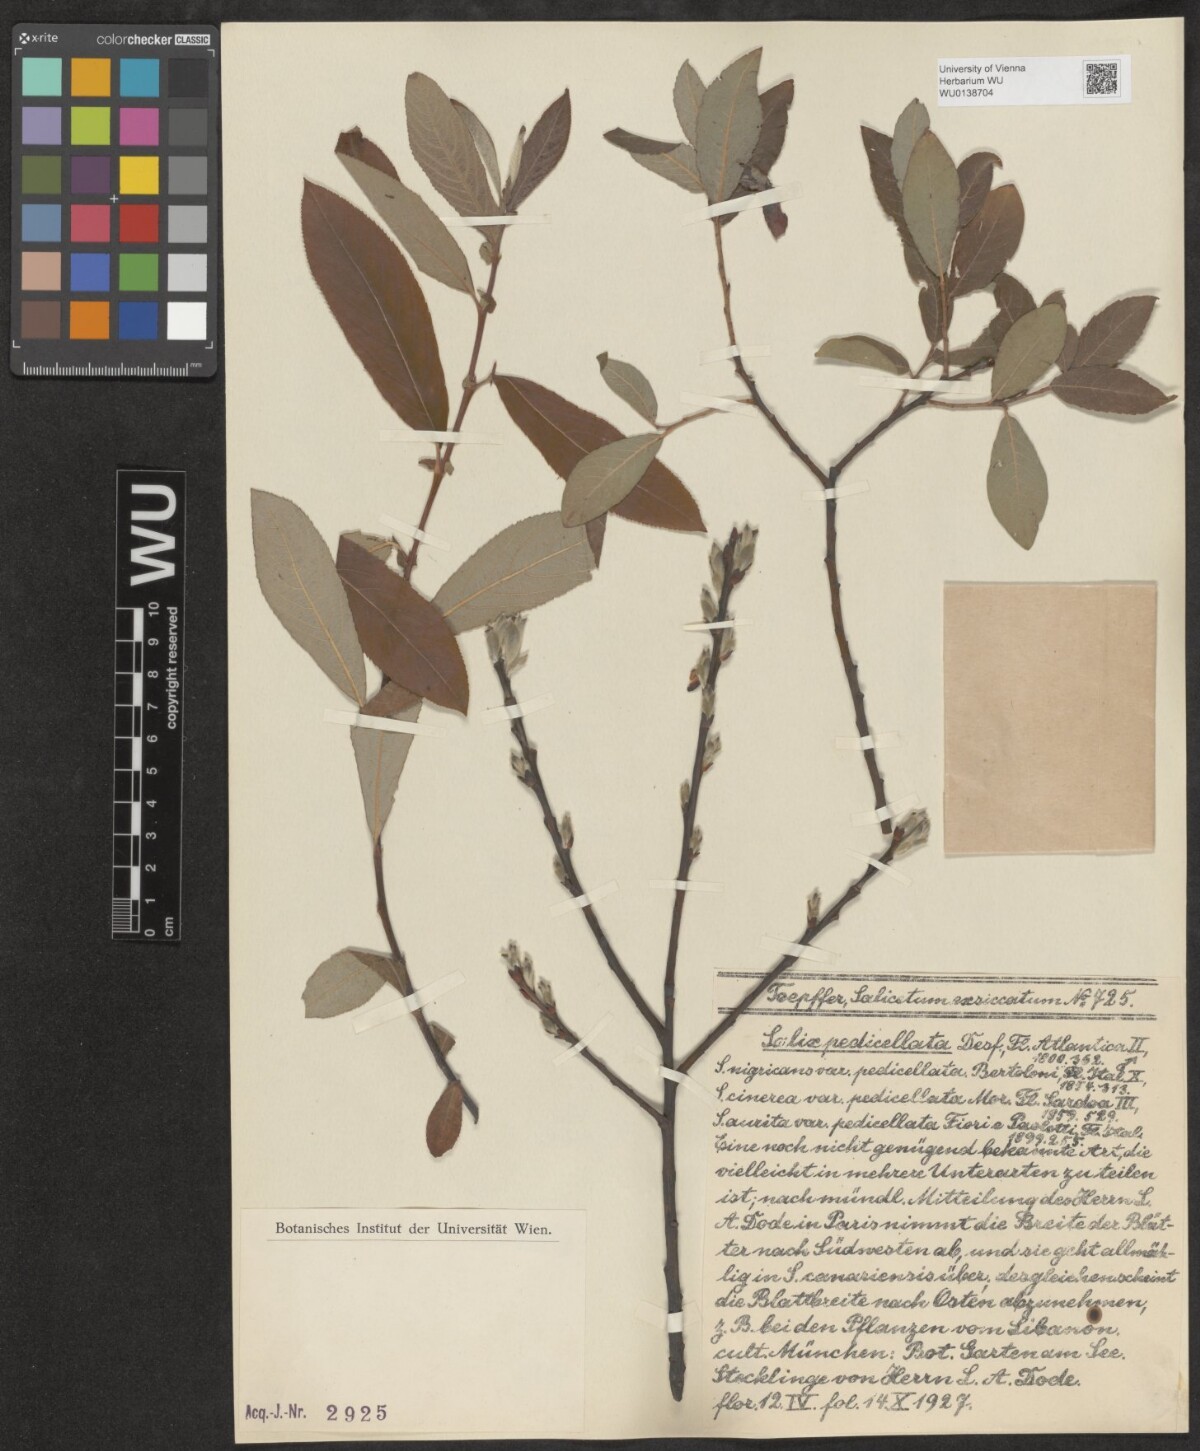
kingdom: Plantae
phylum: Tracheophyta
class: Magnoliopsida
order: Malpighiales
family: Salicaceae
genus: Salix
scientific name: Salix pedicellata
